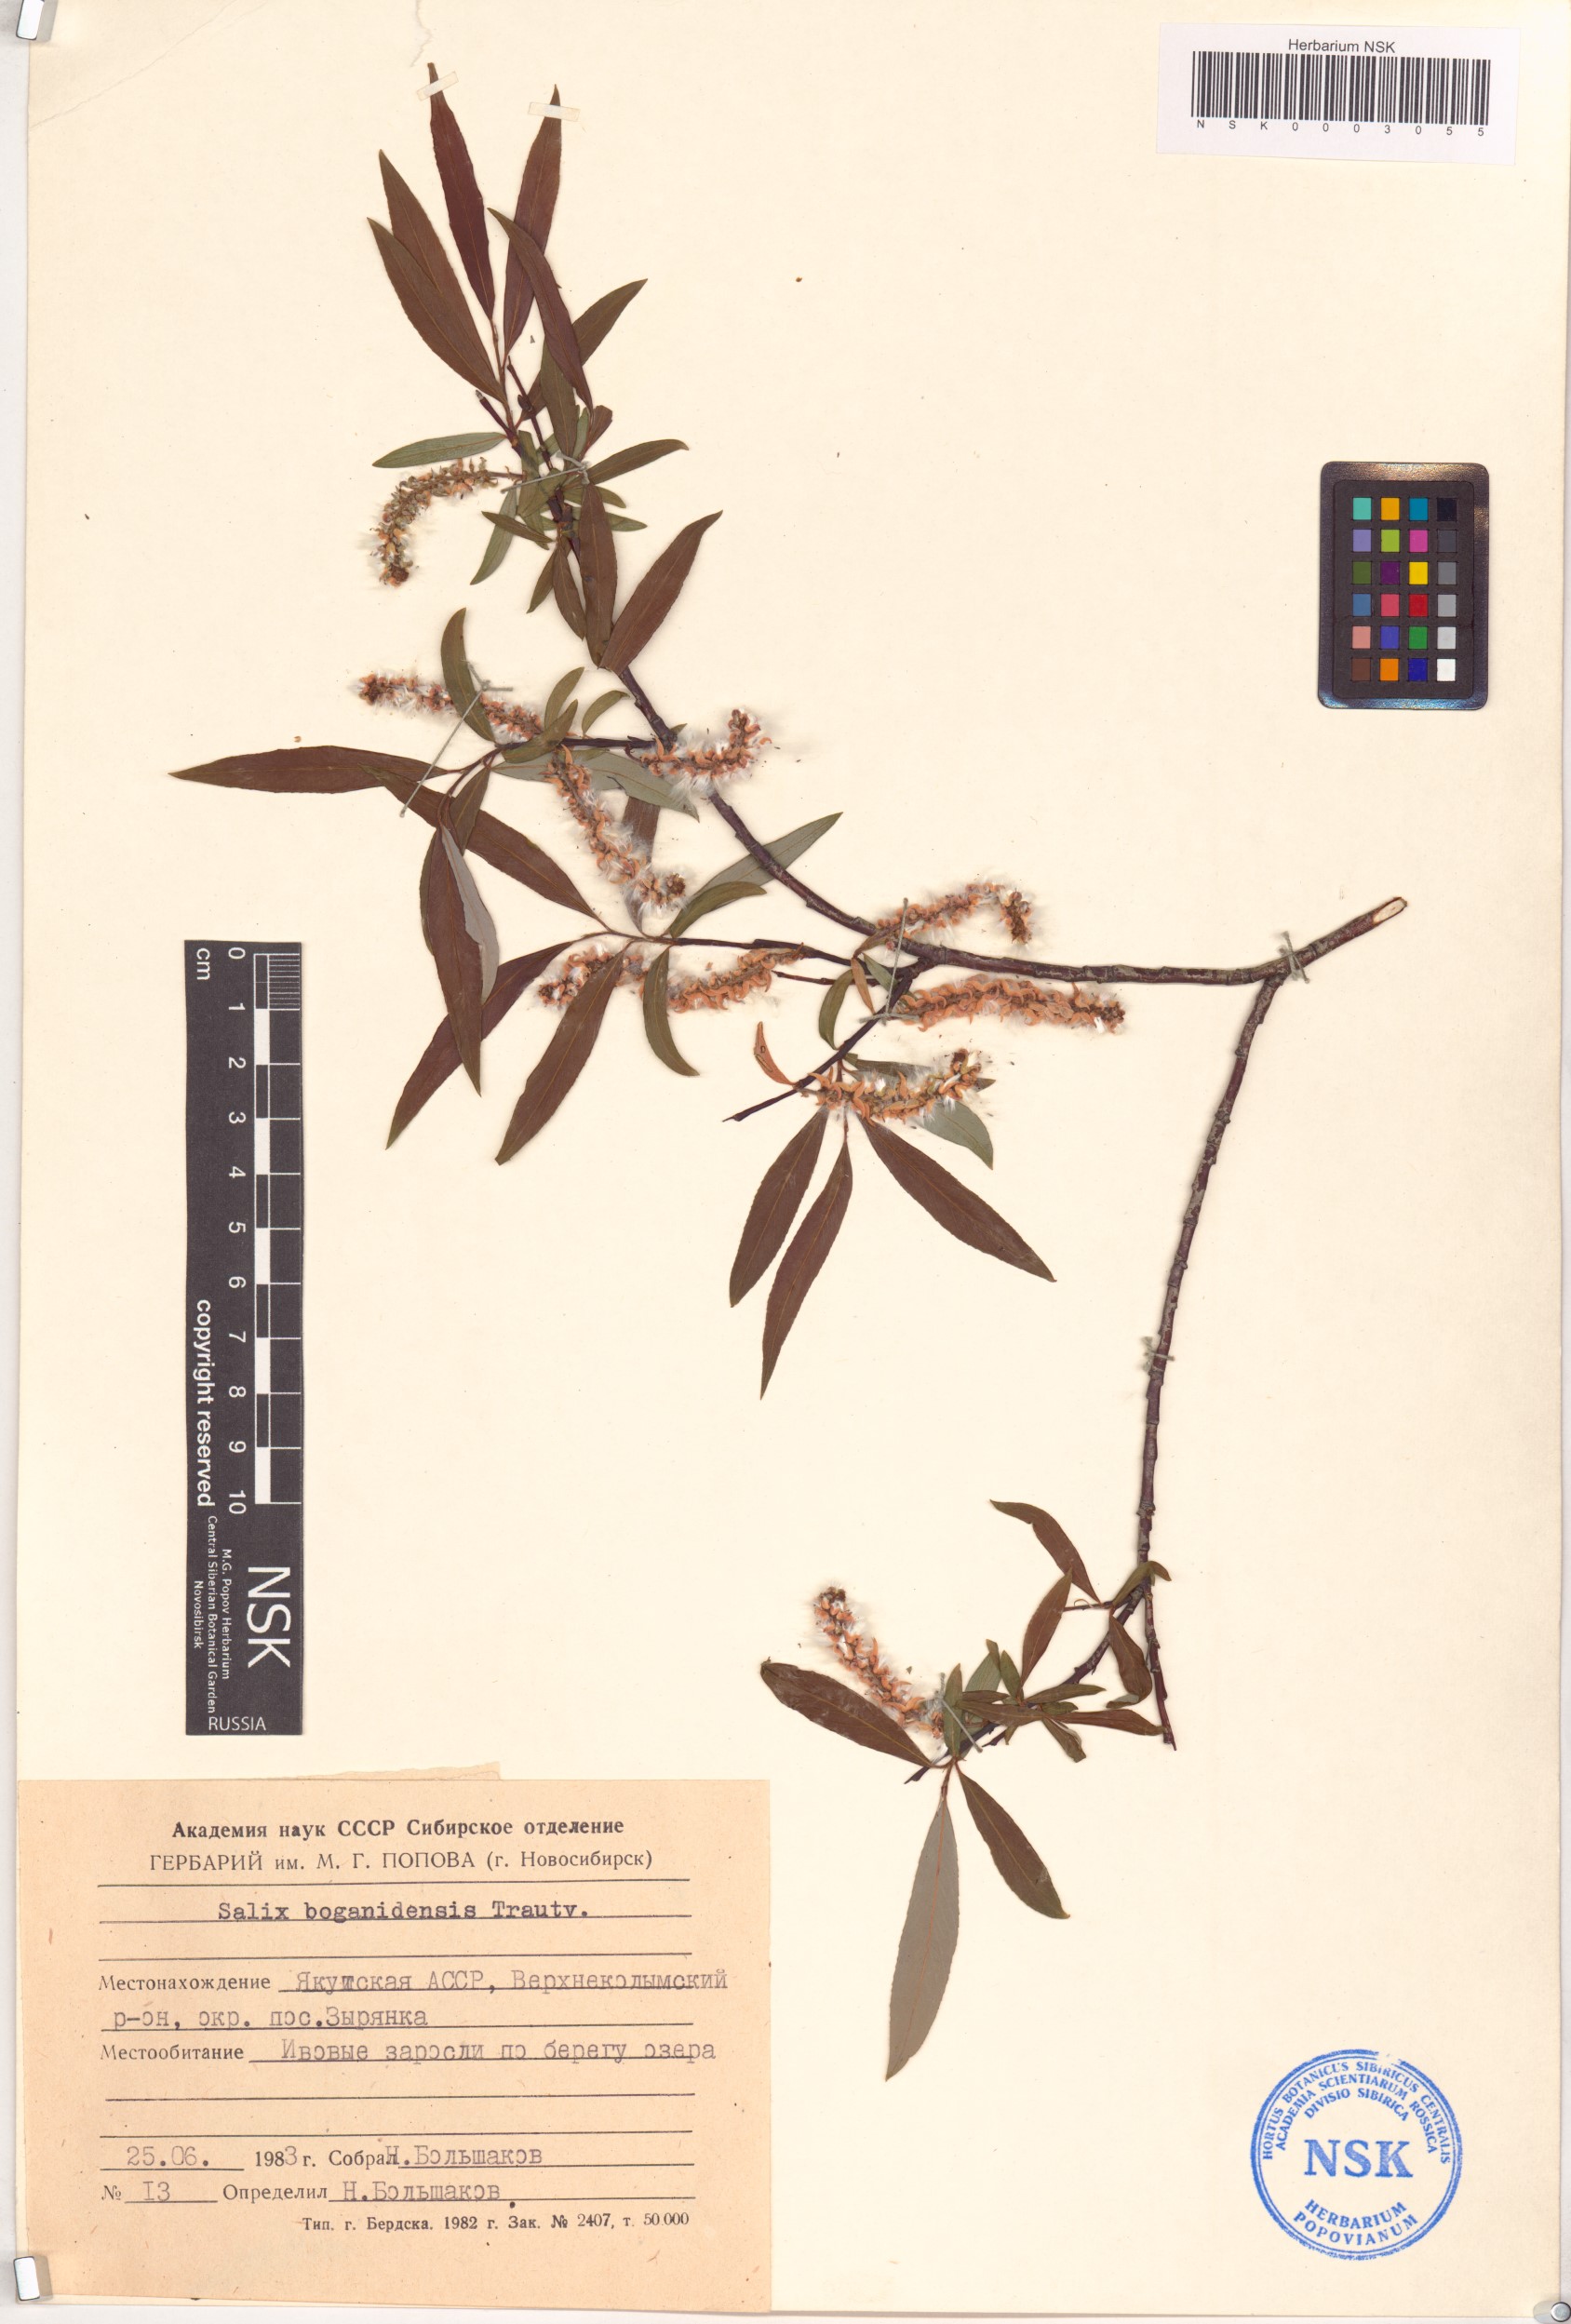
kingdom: Plantae
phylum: Tracheophyta
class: Magnoliopsida
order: Malpighiales
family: Salicaceae
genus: Salix
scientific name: Salix boganidensis
